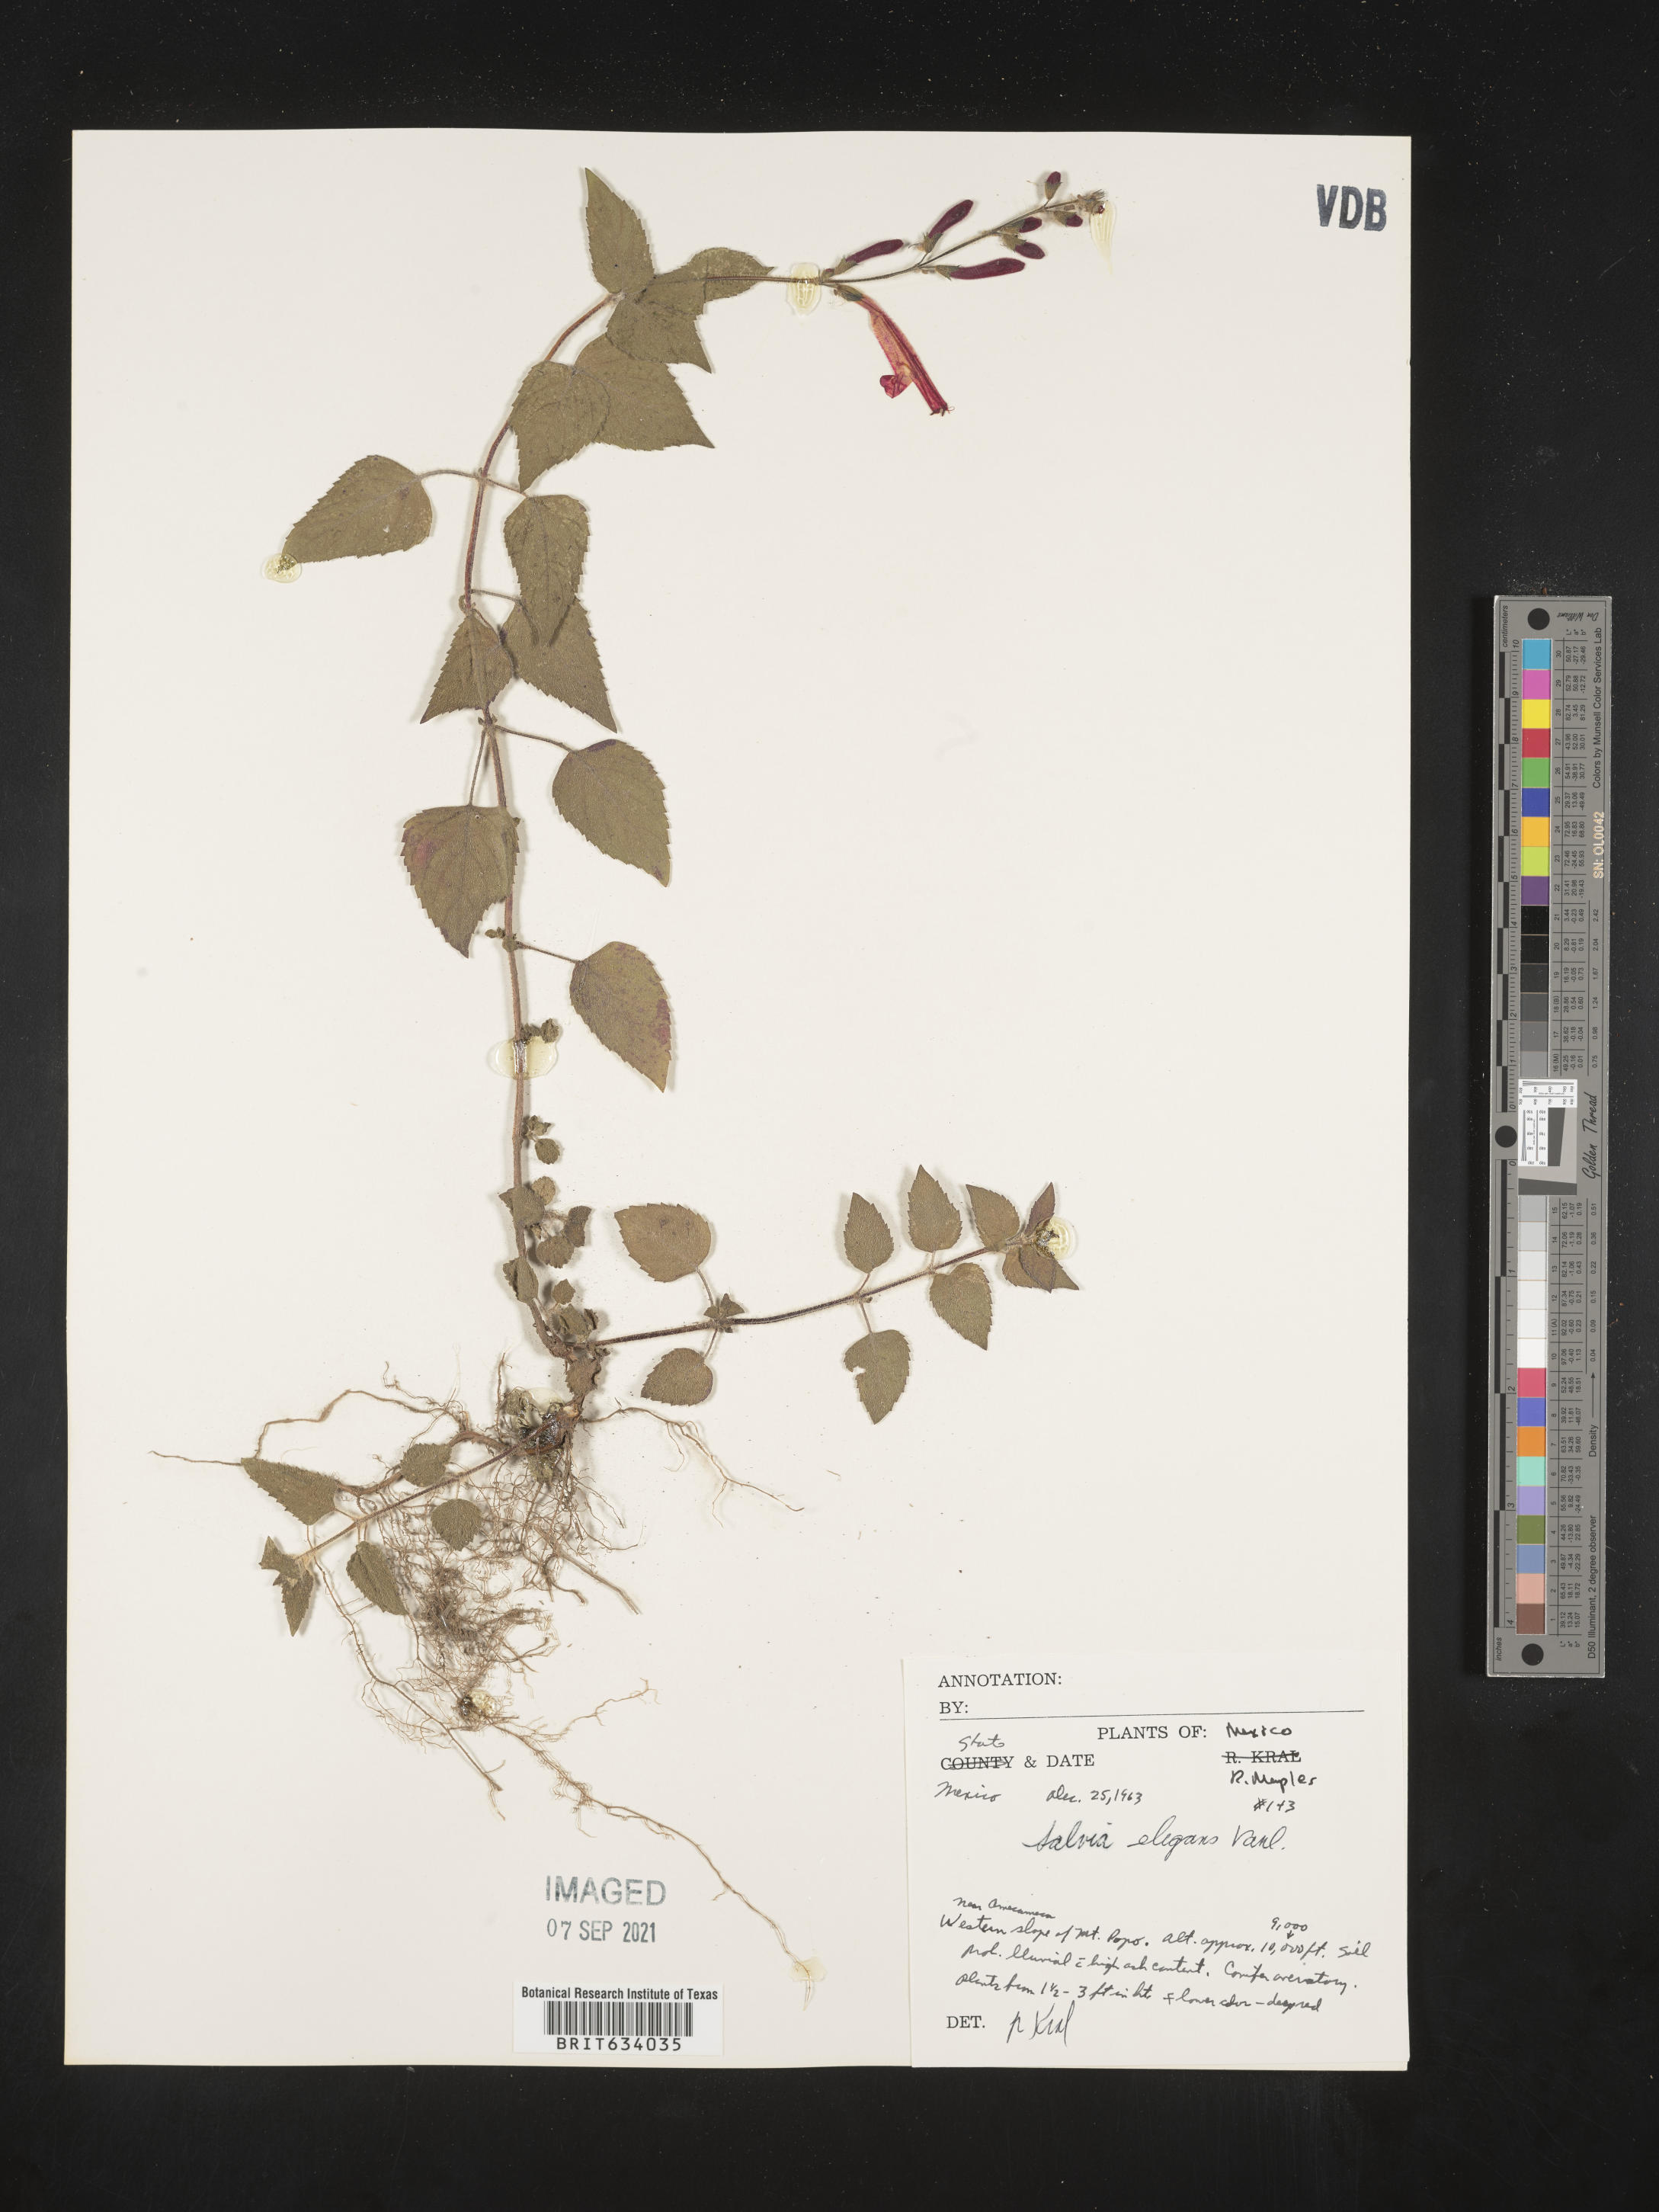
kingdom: Plantae
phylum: Tracheophyta
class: Magnoliopsida
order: Lamiales
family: Lamiaceae
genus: Salvia
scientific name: Salvia
